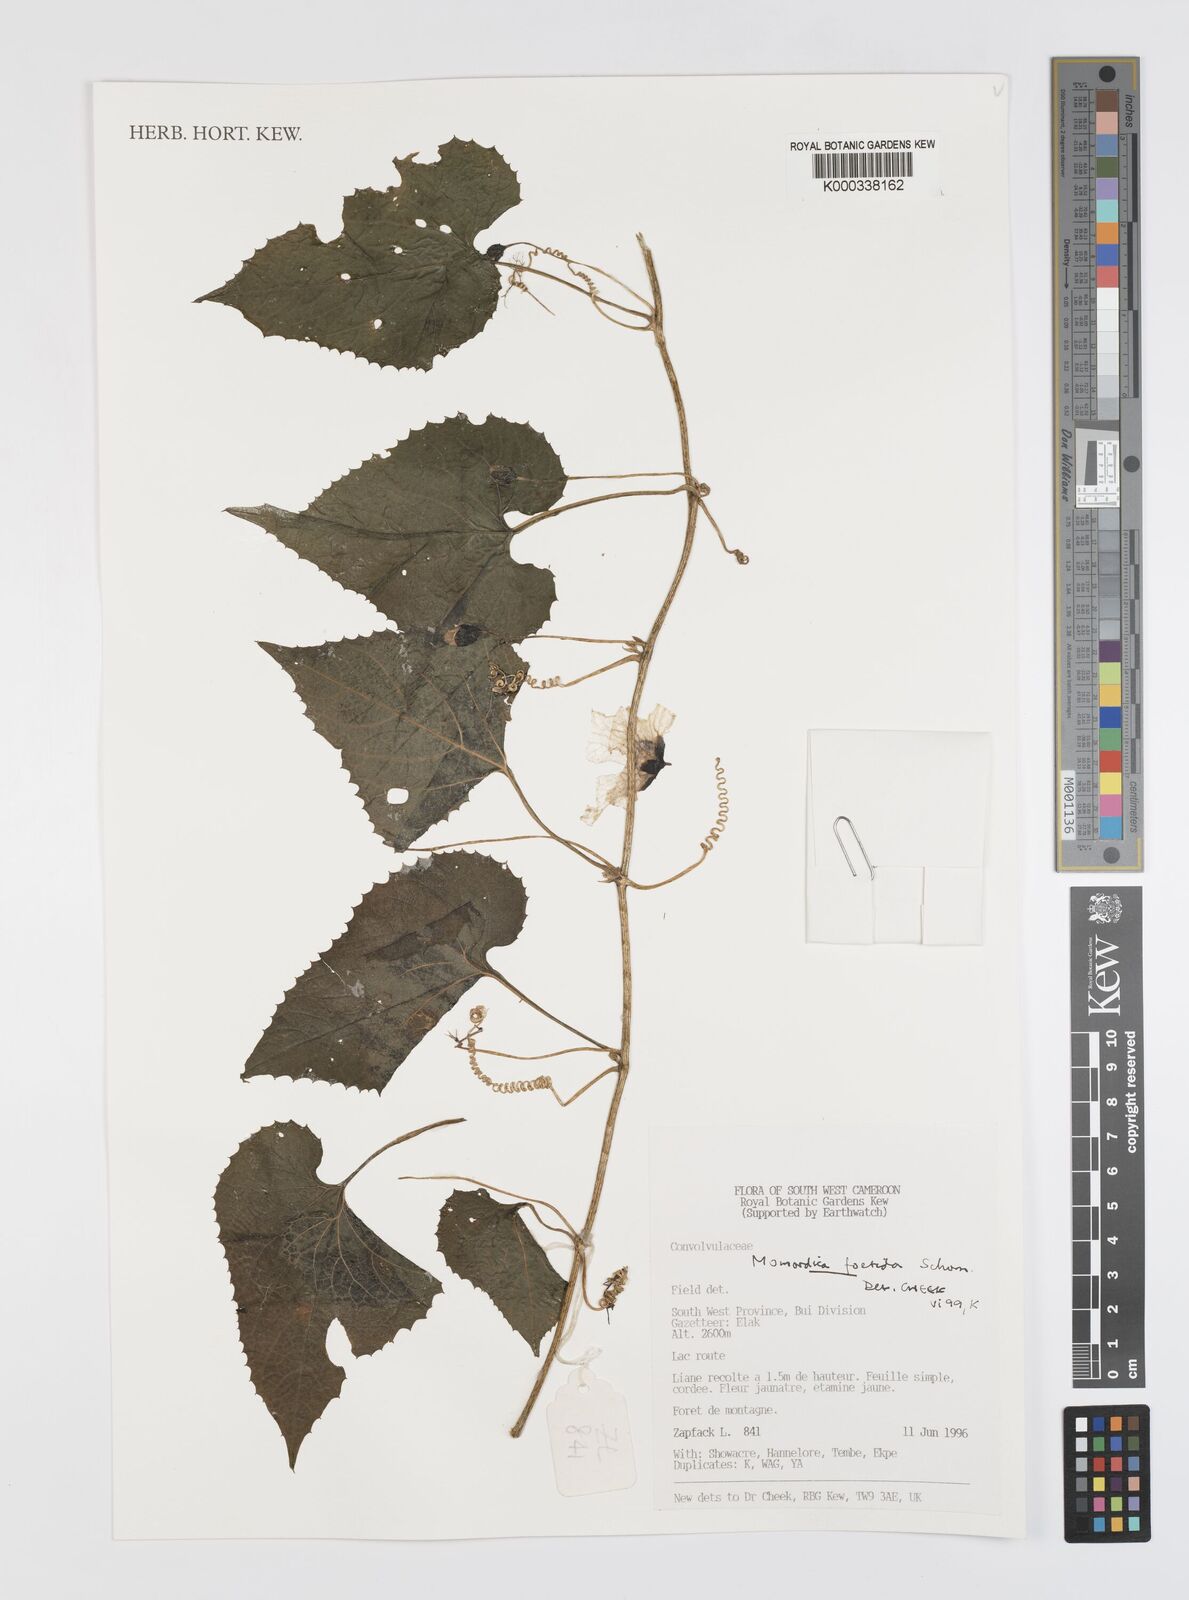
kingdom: Plantae
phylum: Tracheophyta
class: Magnoliopsida
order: Cucurbitales
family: Cucurbitaceae
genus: Momordica
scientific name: Momordica foetida
